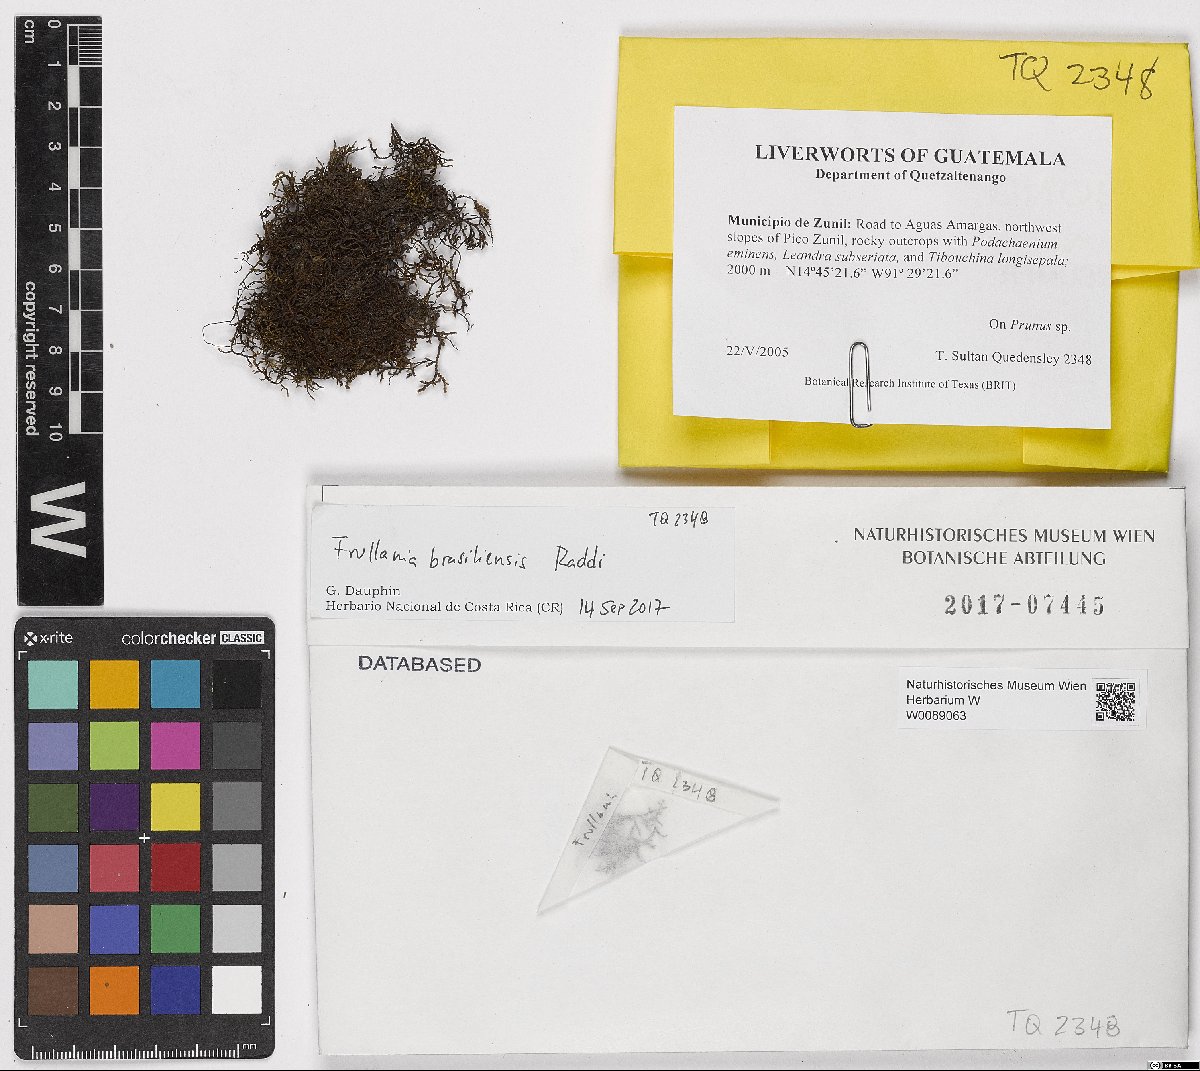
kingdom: Plantae
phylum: Marchantiophyta
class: Jungermanniopsida
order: Porellales
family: Frullaniaceae
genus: Frullania
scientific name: Frullania brasiliensis
